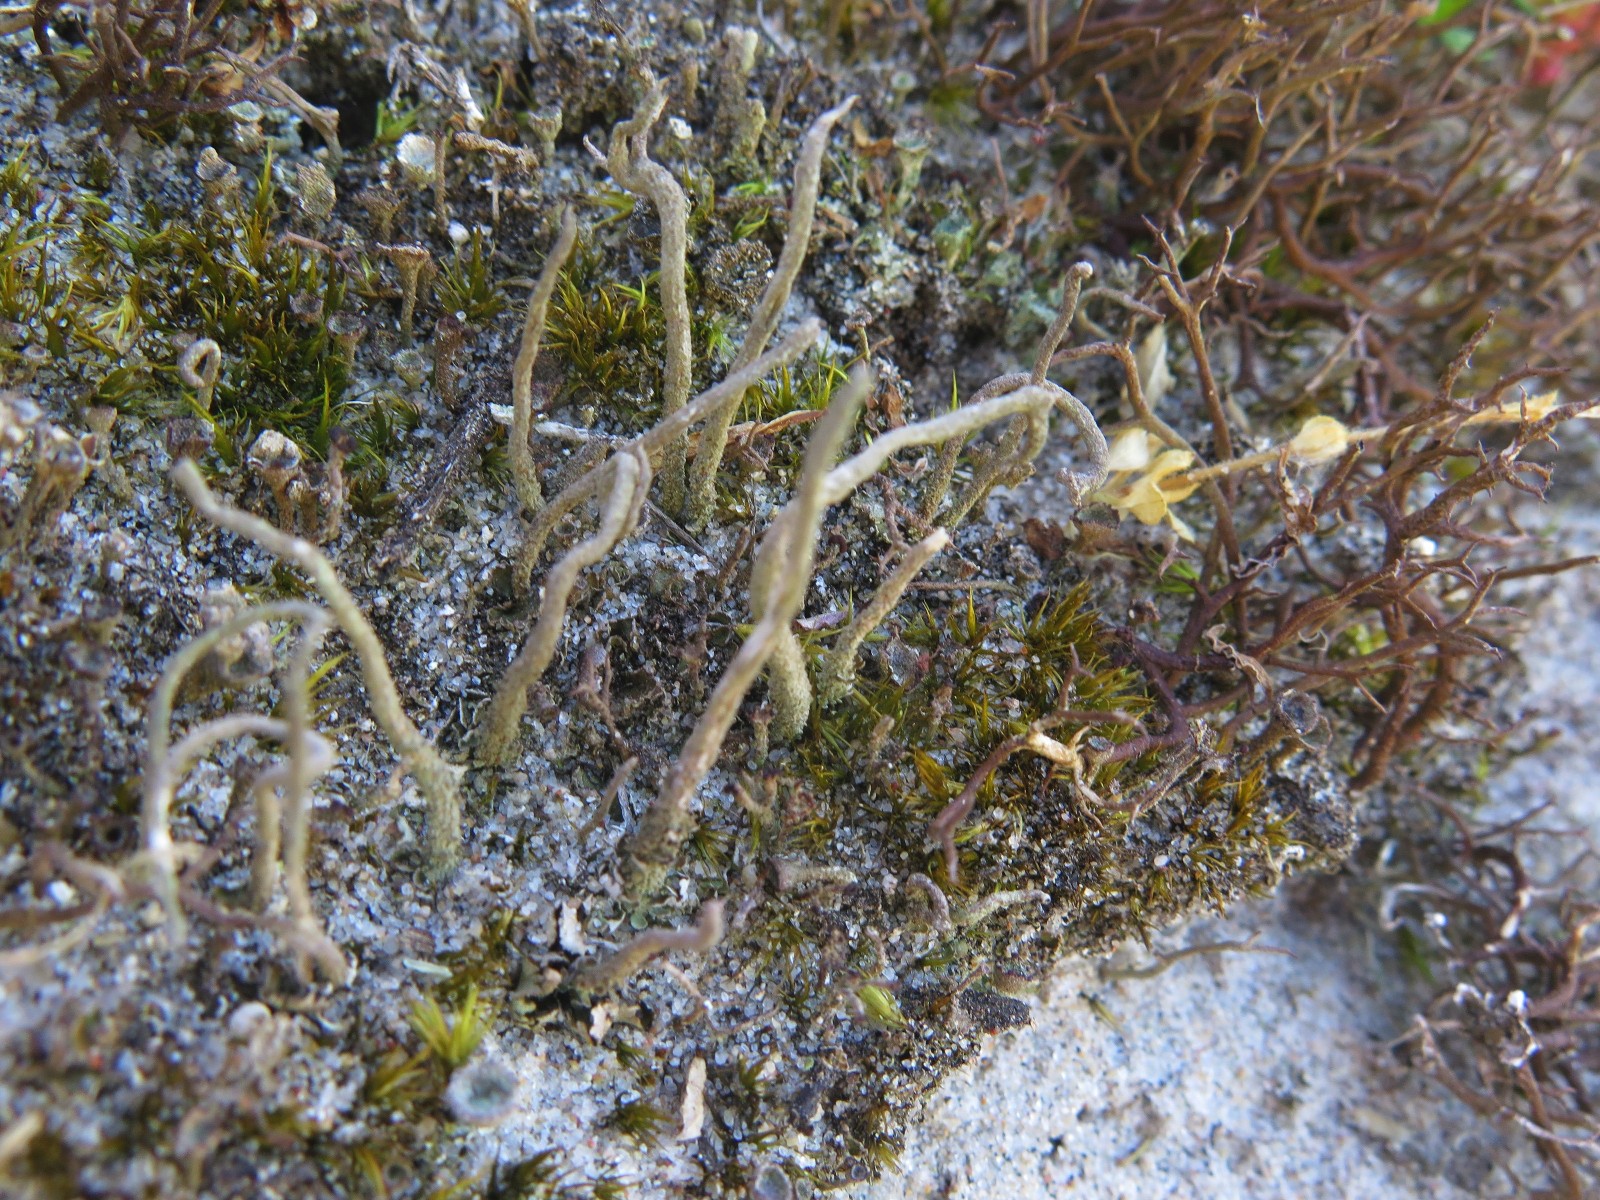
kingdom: Fungi
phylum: Ascomycota
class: Lecanoromycetes
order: Lecanorales
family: Cladoniaceae
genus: Cladonia
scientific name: Cladonia subulata
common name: spids bægerlav
